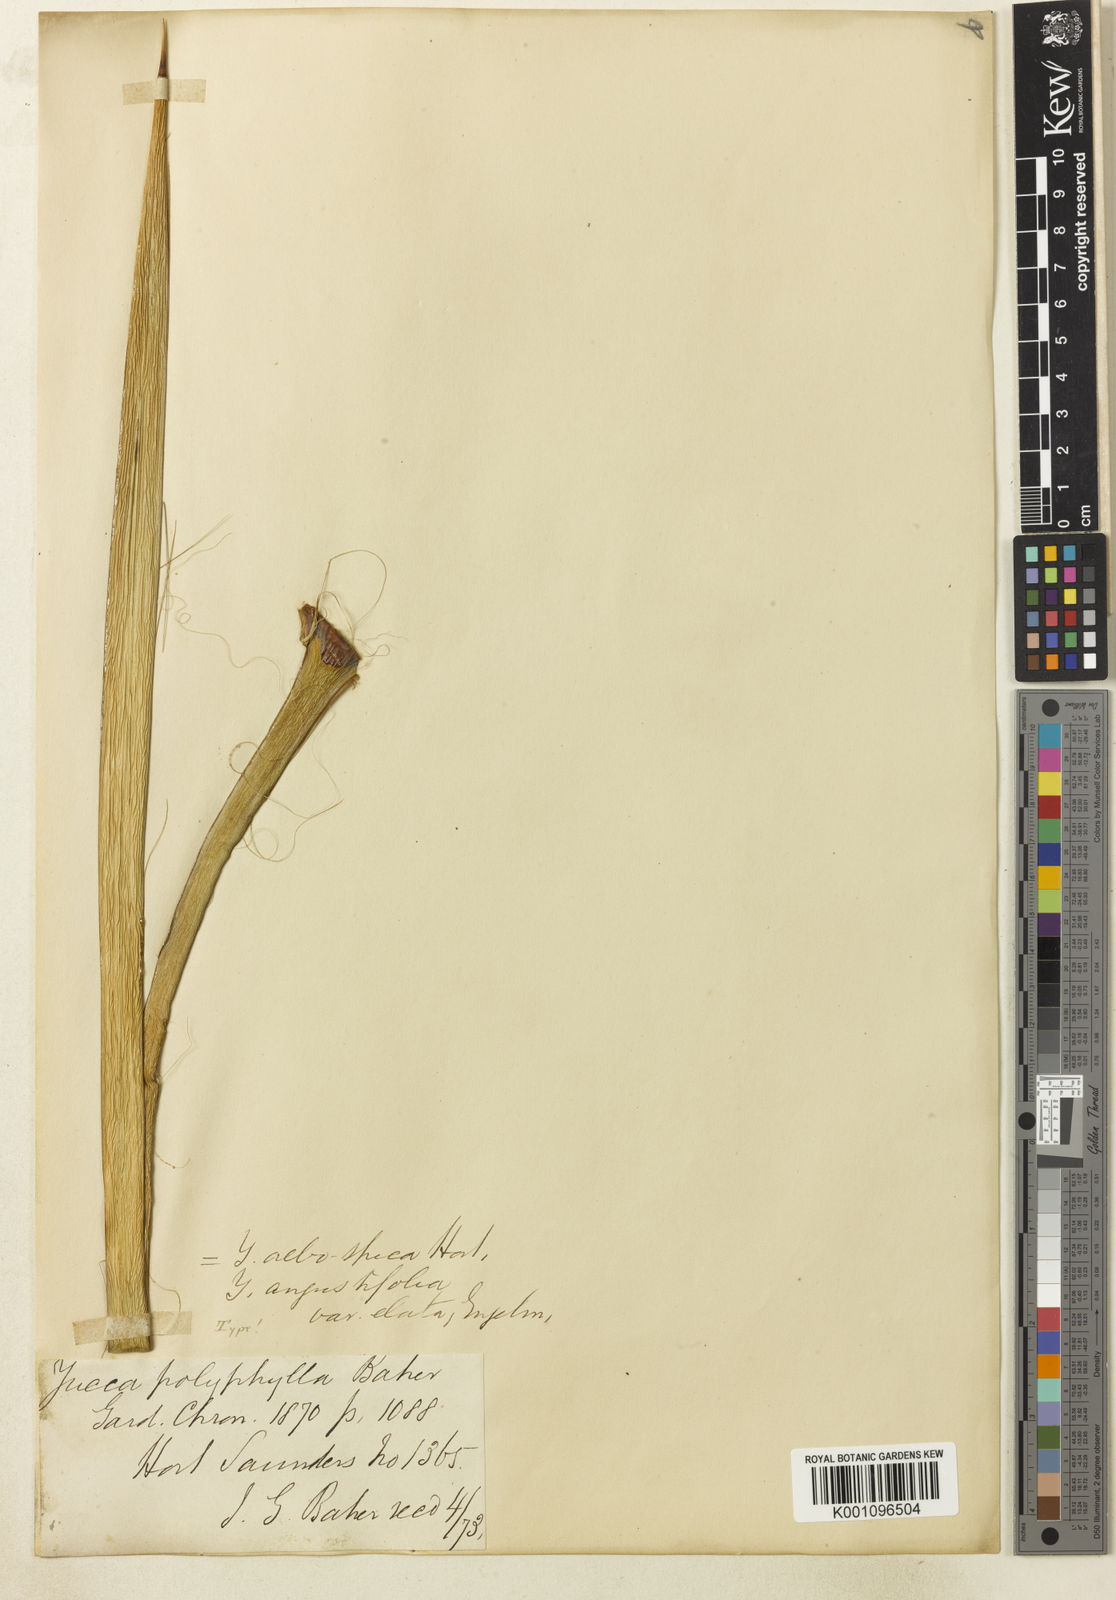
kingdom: Plantae
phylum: Tracheophyta
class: Liliopsida
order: Asparagales
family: Asparagaceae
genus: Yucca
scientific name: Yucca constricta
